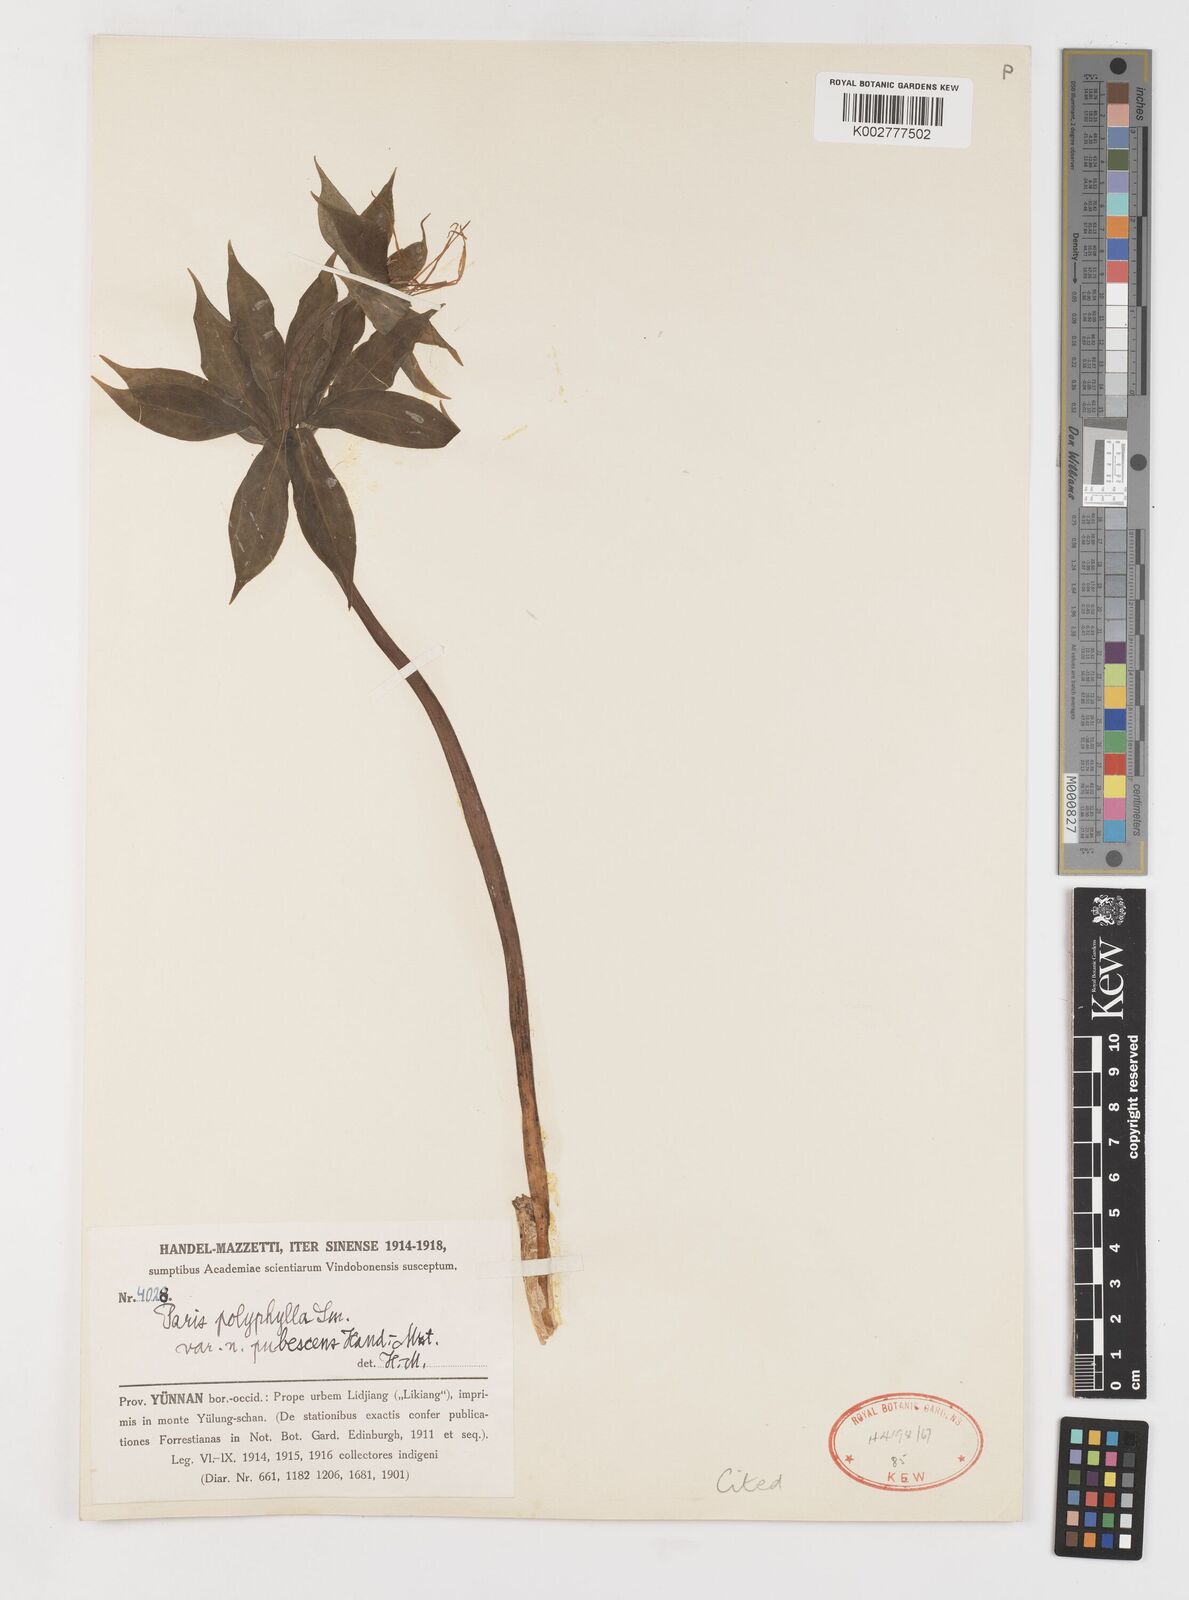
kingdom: Plantae
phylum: Tracheophyta
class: Liliopsida
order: Liliales
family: Melanthiaceae
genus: Paris
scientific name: Paris mairei
